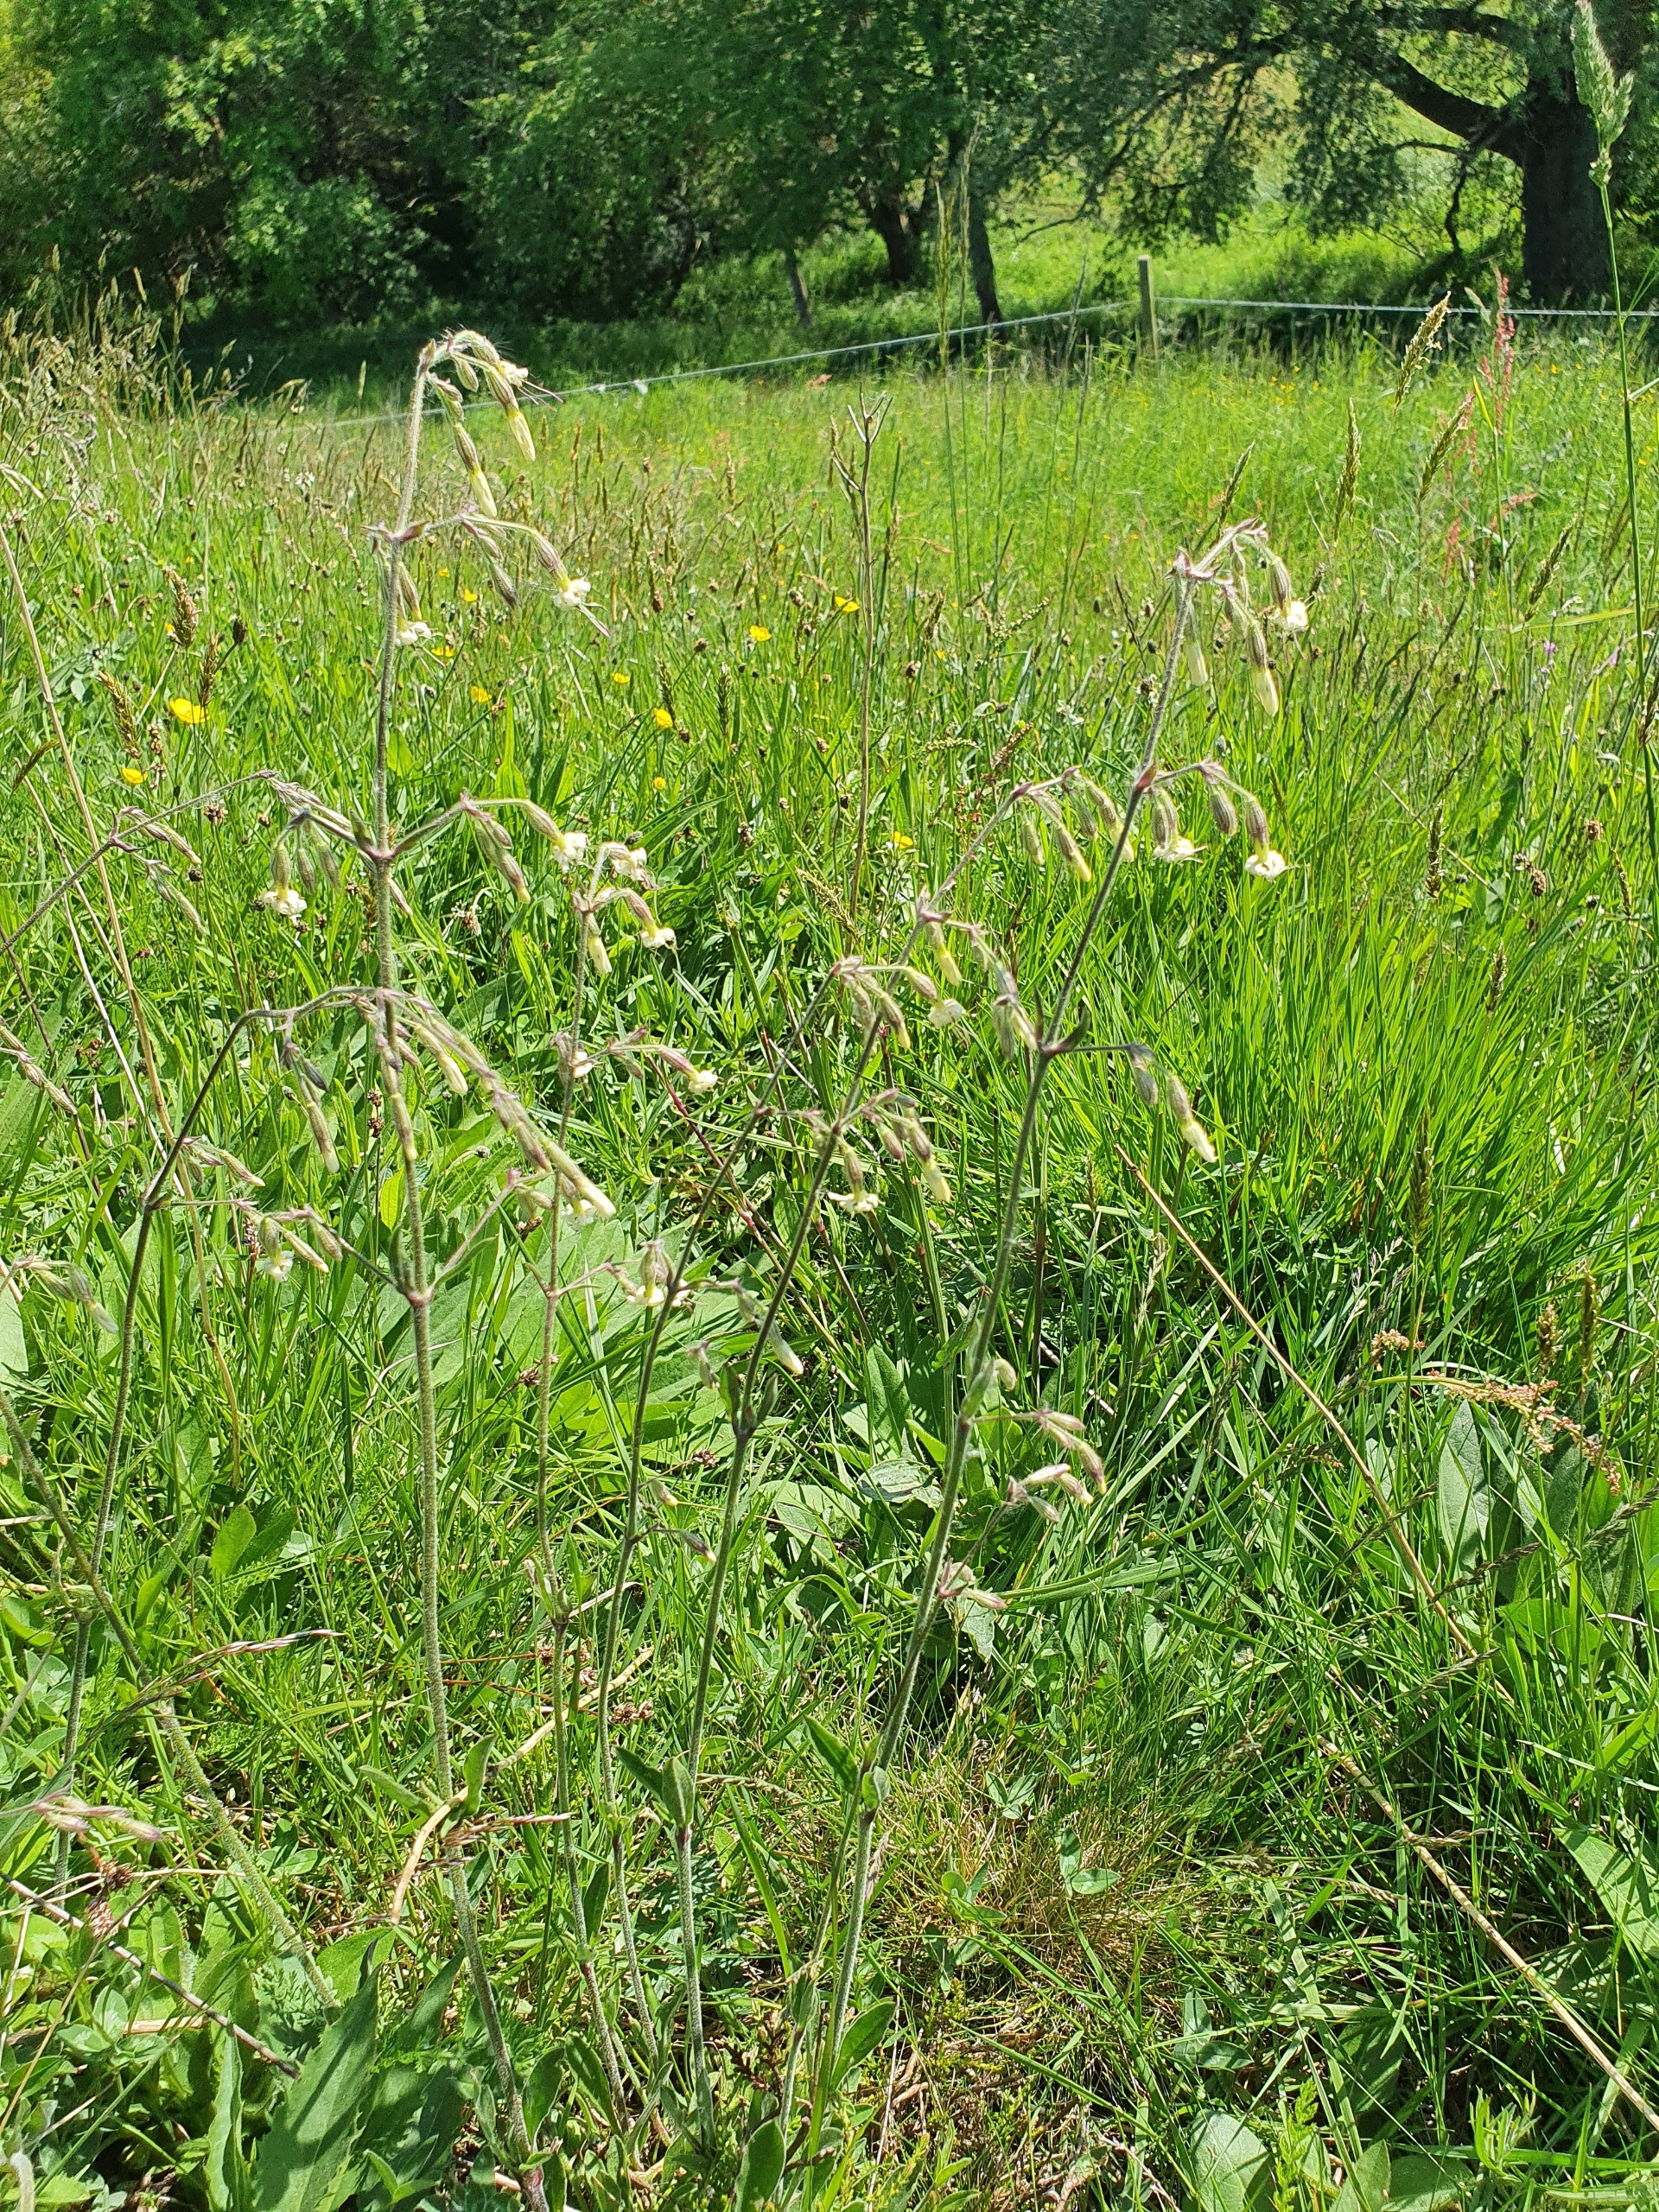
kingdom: Plantae
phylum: Tracheophyta
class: Magnoliopsida
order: Caryophyllales
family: Caryophyllaceae
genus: Silene
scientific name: Silene nutans
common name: Nikkende limurt
